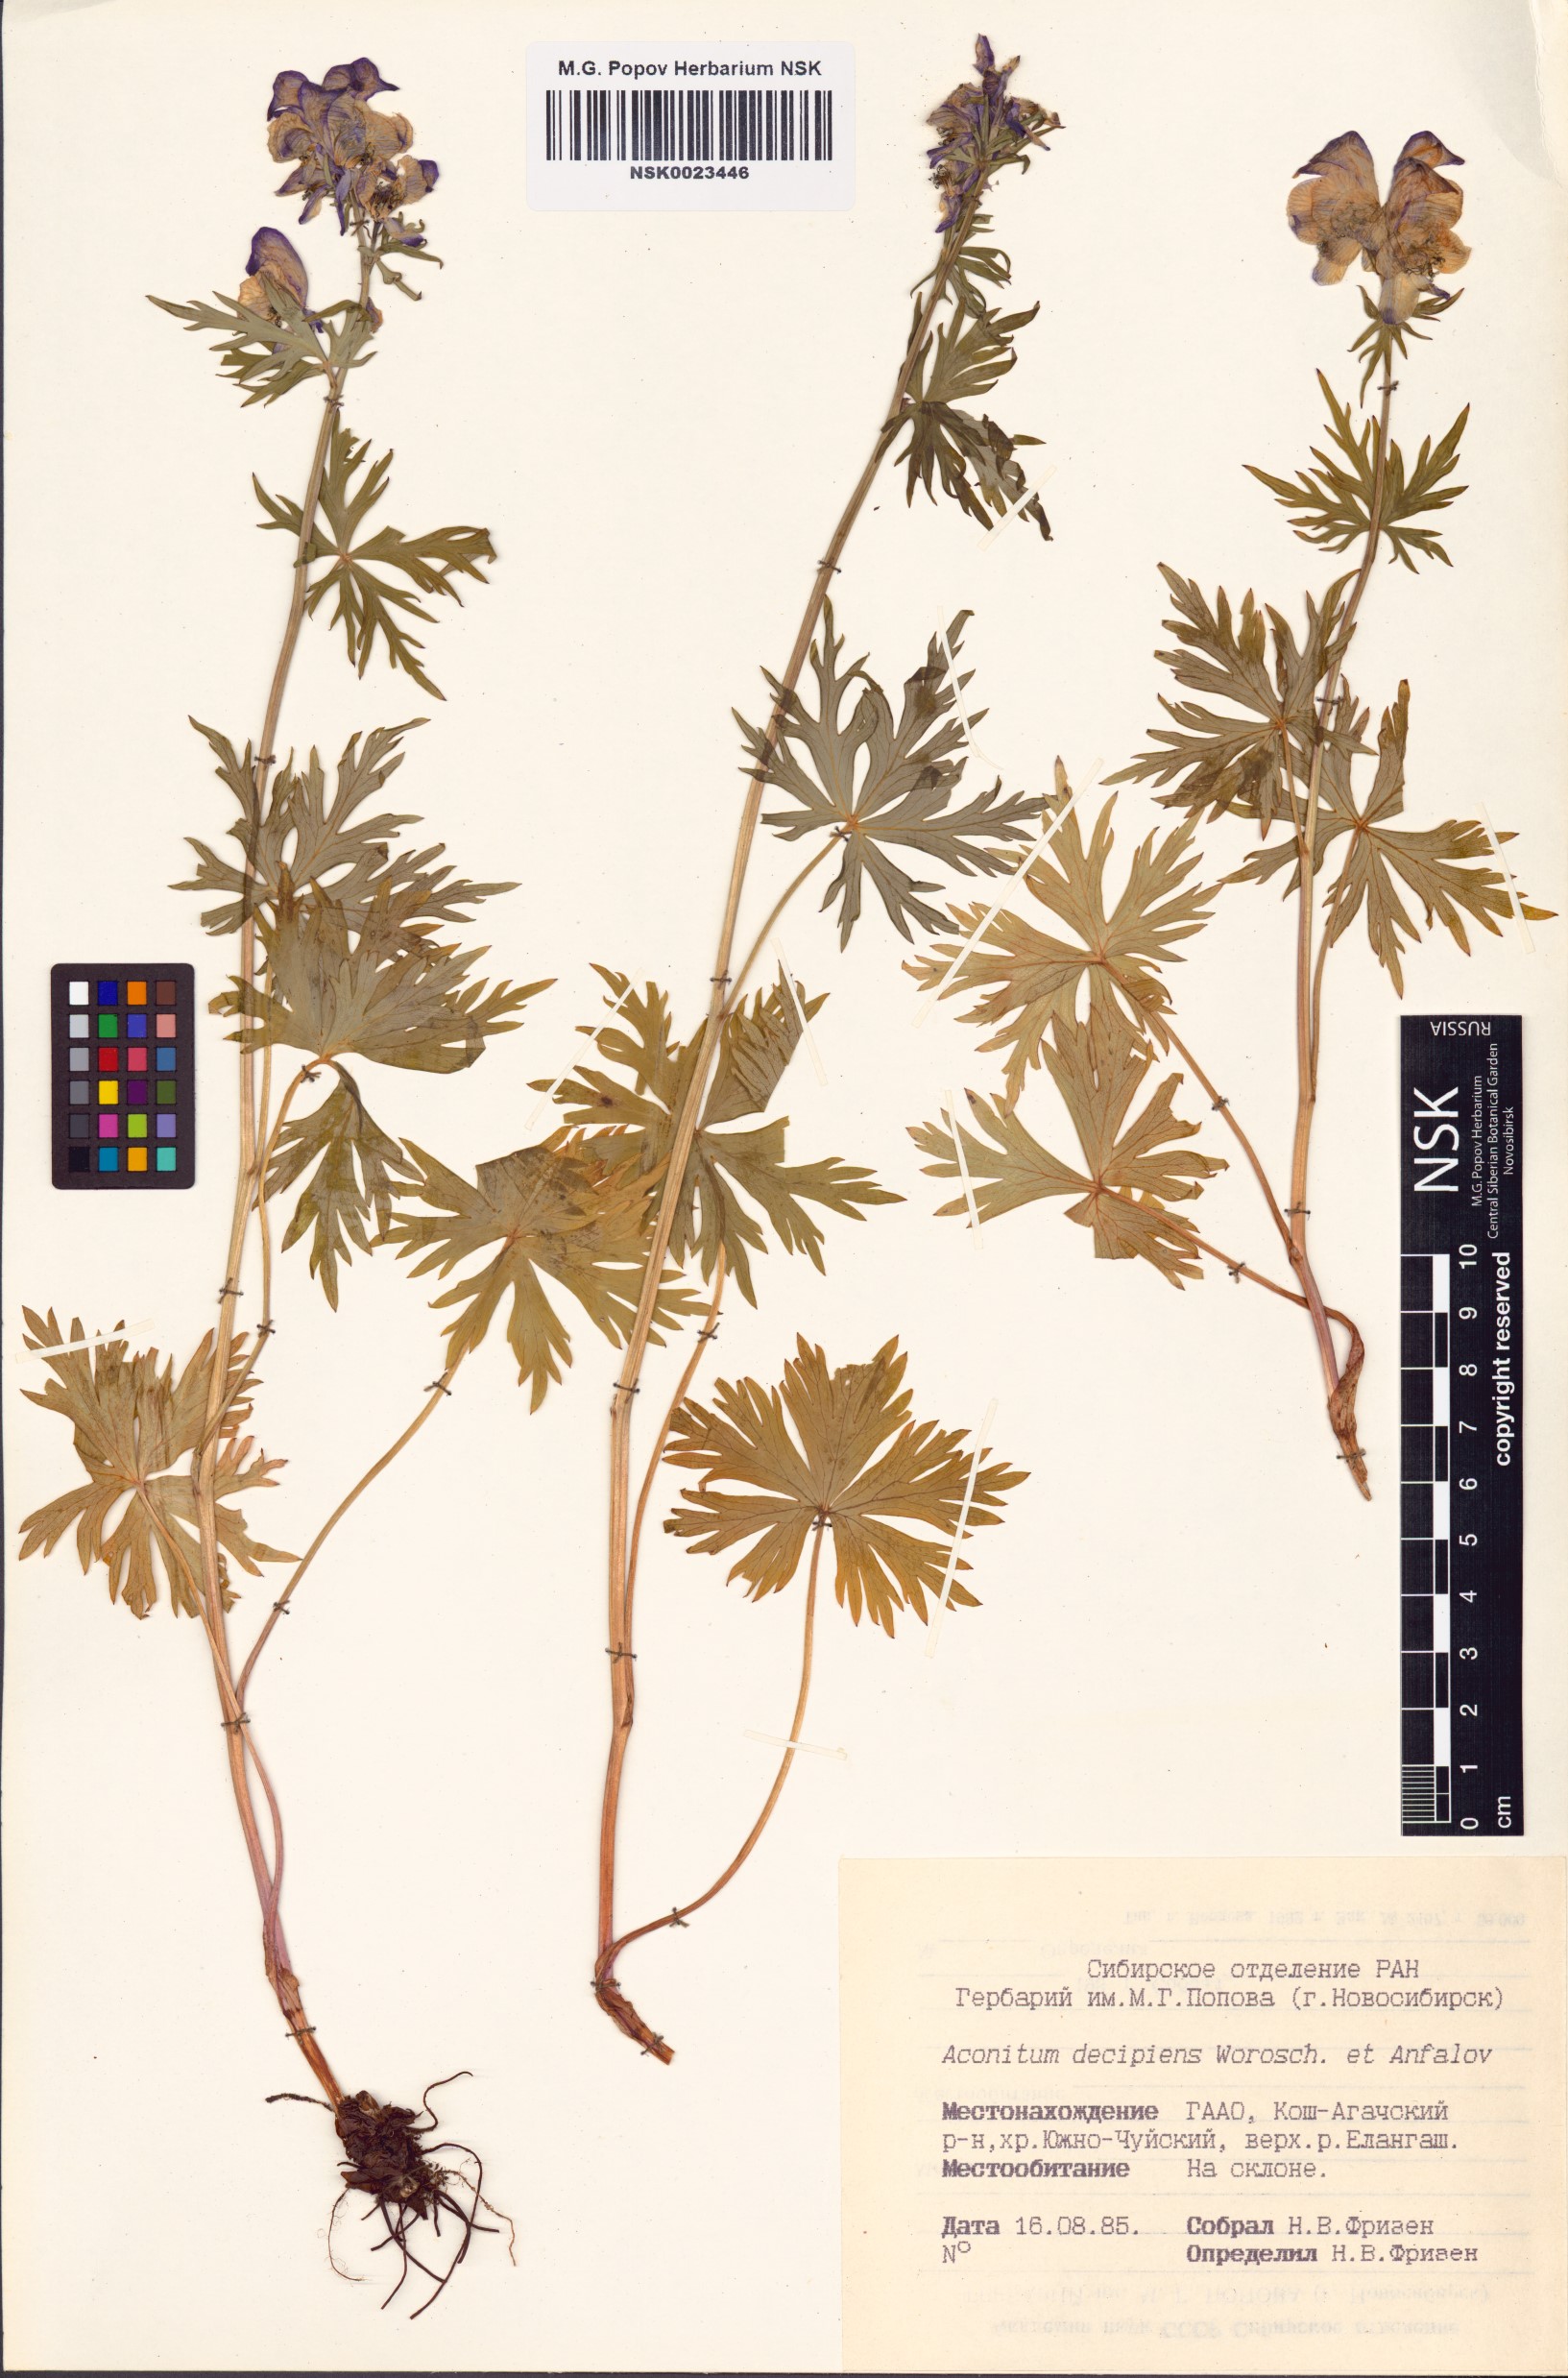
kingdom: Plantae
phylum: Tracheophyta
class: Magnoliopsida
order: Ranunculales
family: Ranunculaceae
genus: Aconitum
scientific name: Aconitum decipiens
